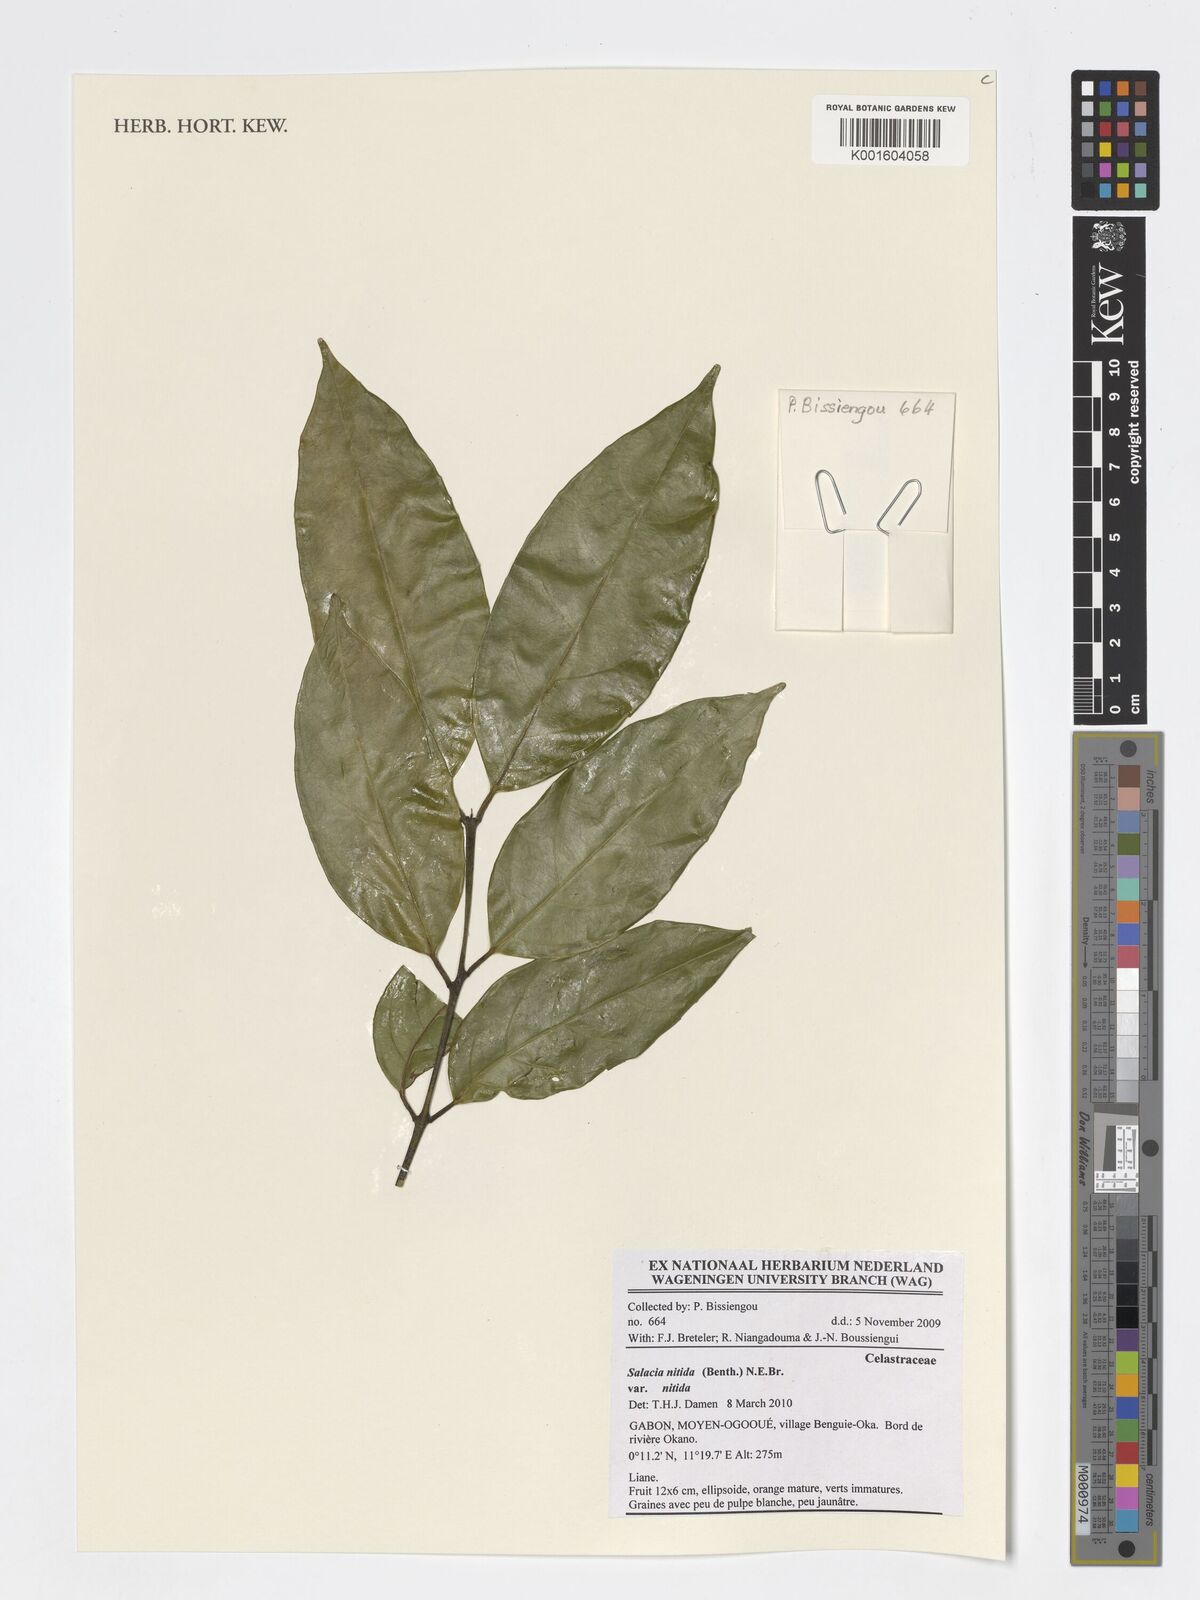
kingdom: Plantae
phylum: Tracheophyta
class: Magnoliopsida
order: Celastrales
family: Celastraceae
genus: Salacia
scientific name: Salacia nitida
